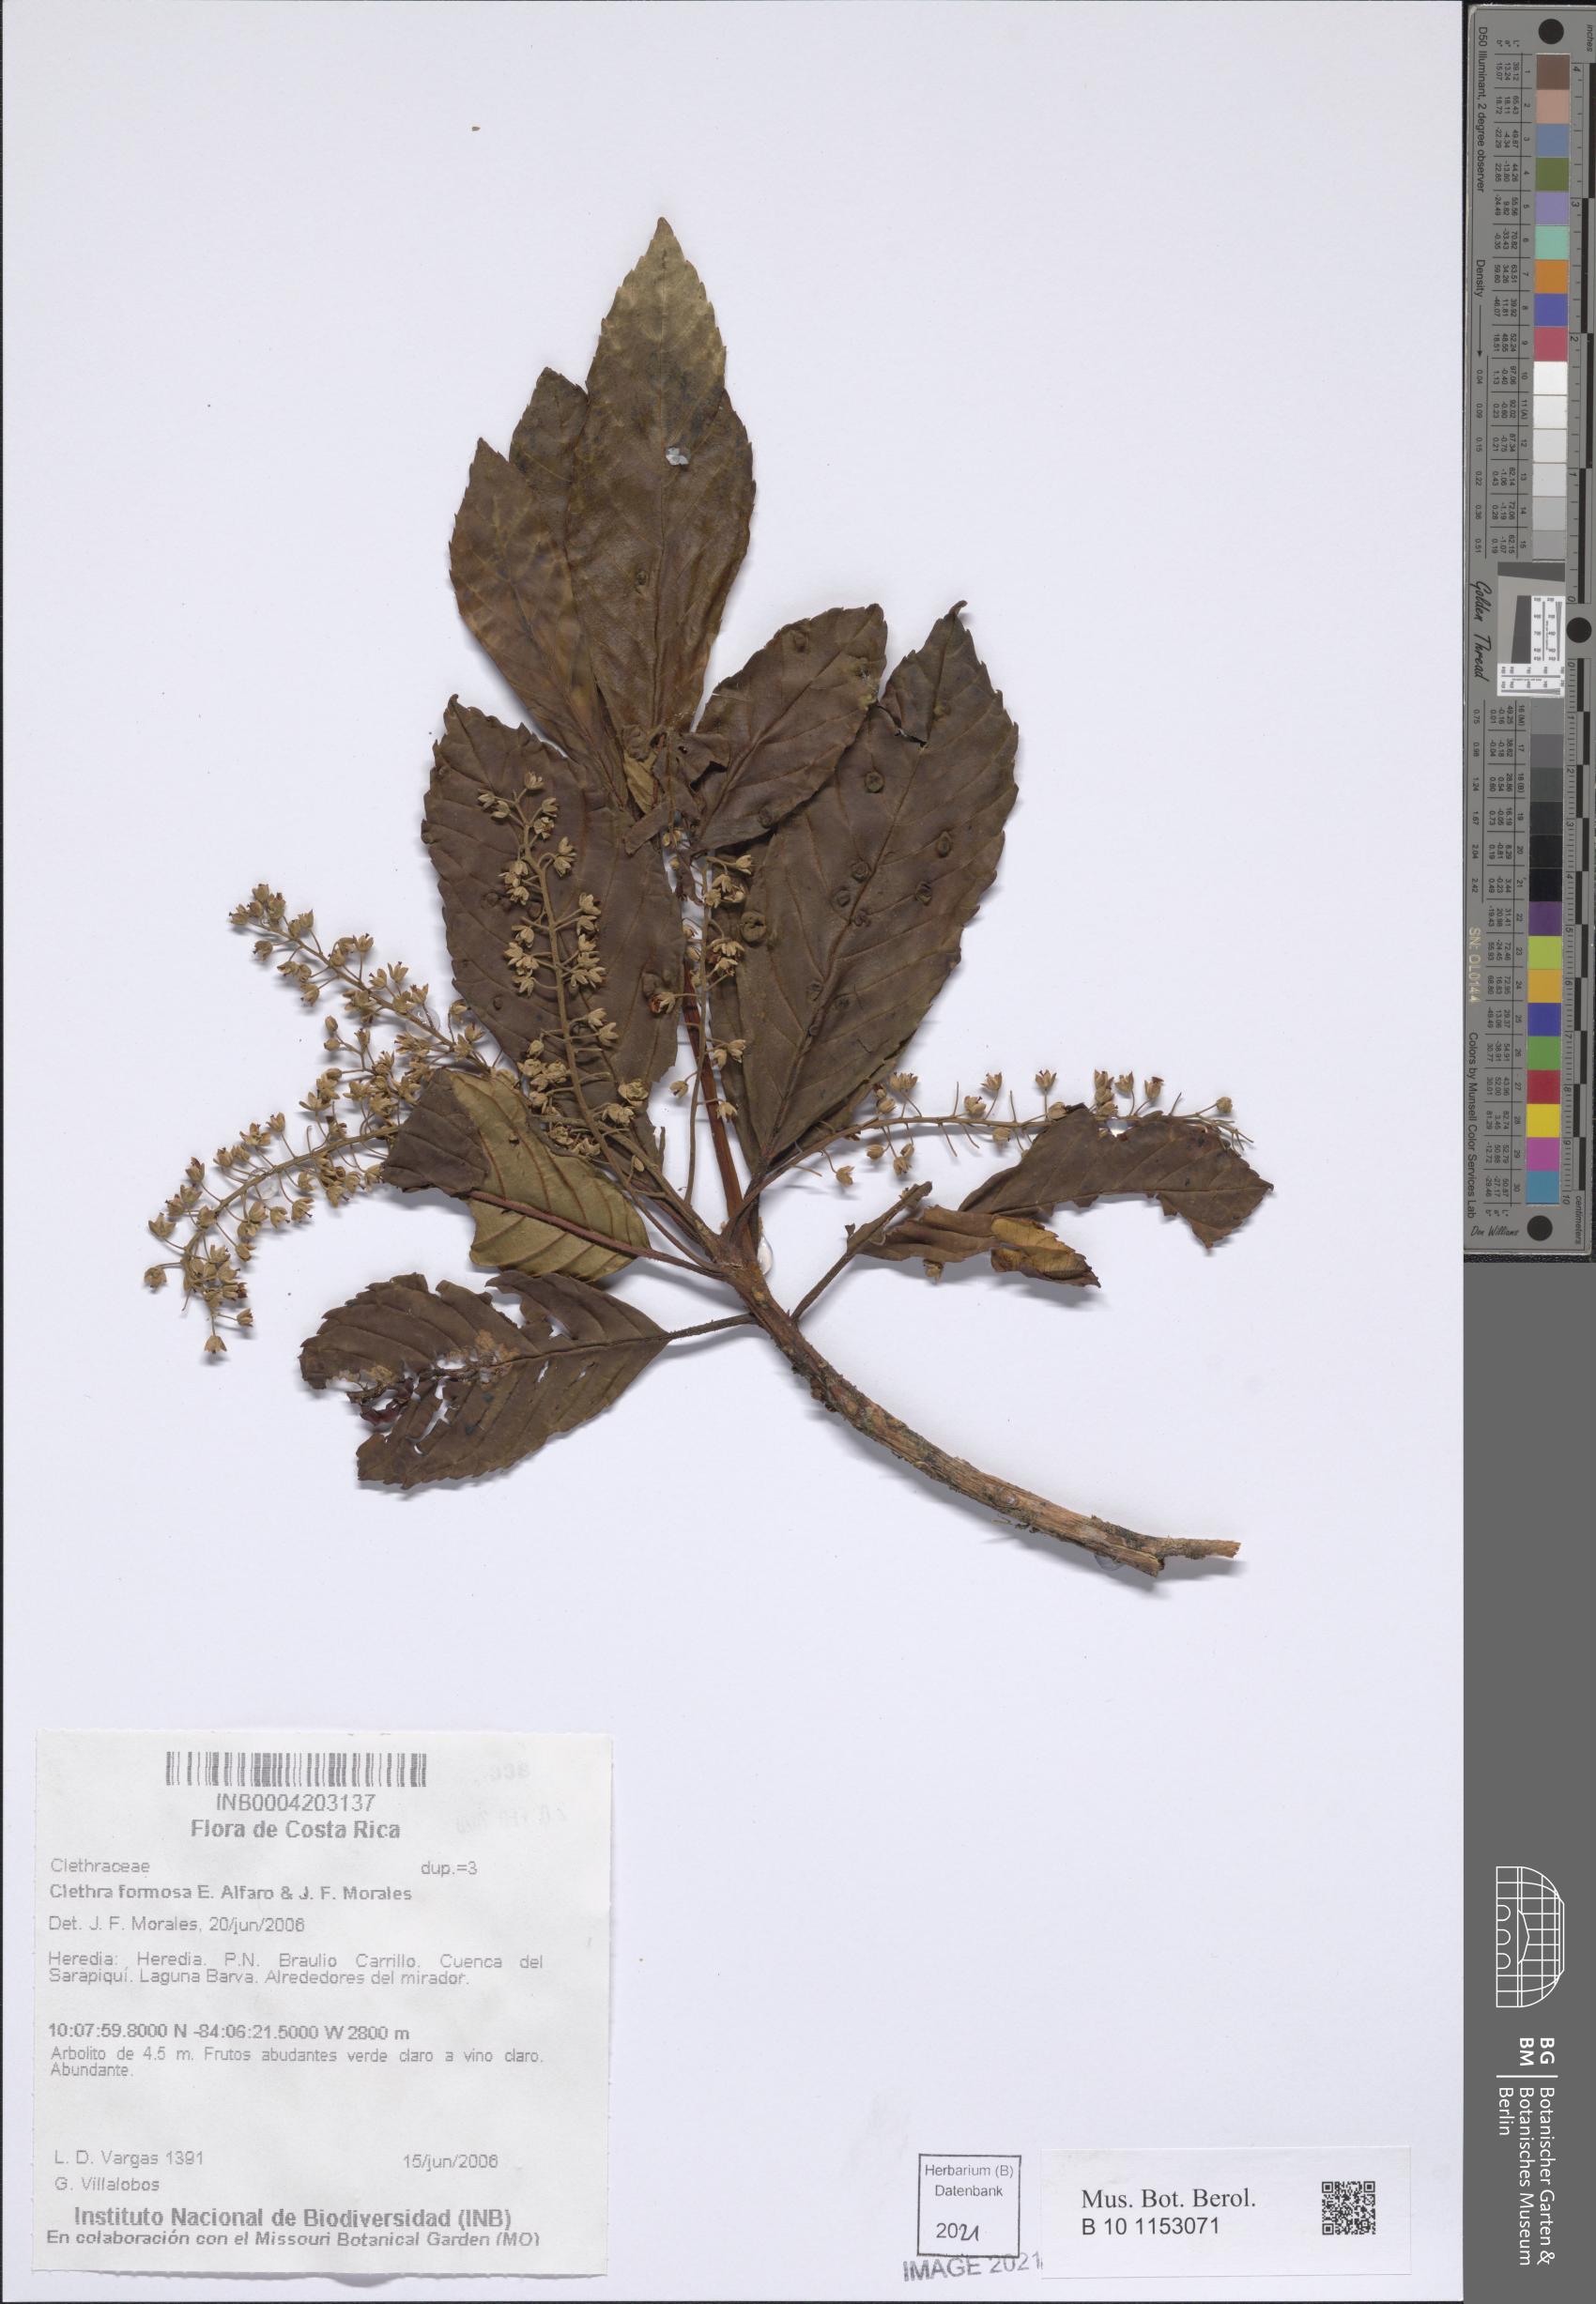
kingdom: Plantae
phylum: Tracheophyta
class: Magnoliopsida
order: Ericales
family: Clethraceae
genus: Clethra
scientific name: Clethra formosa
